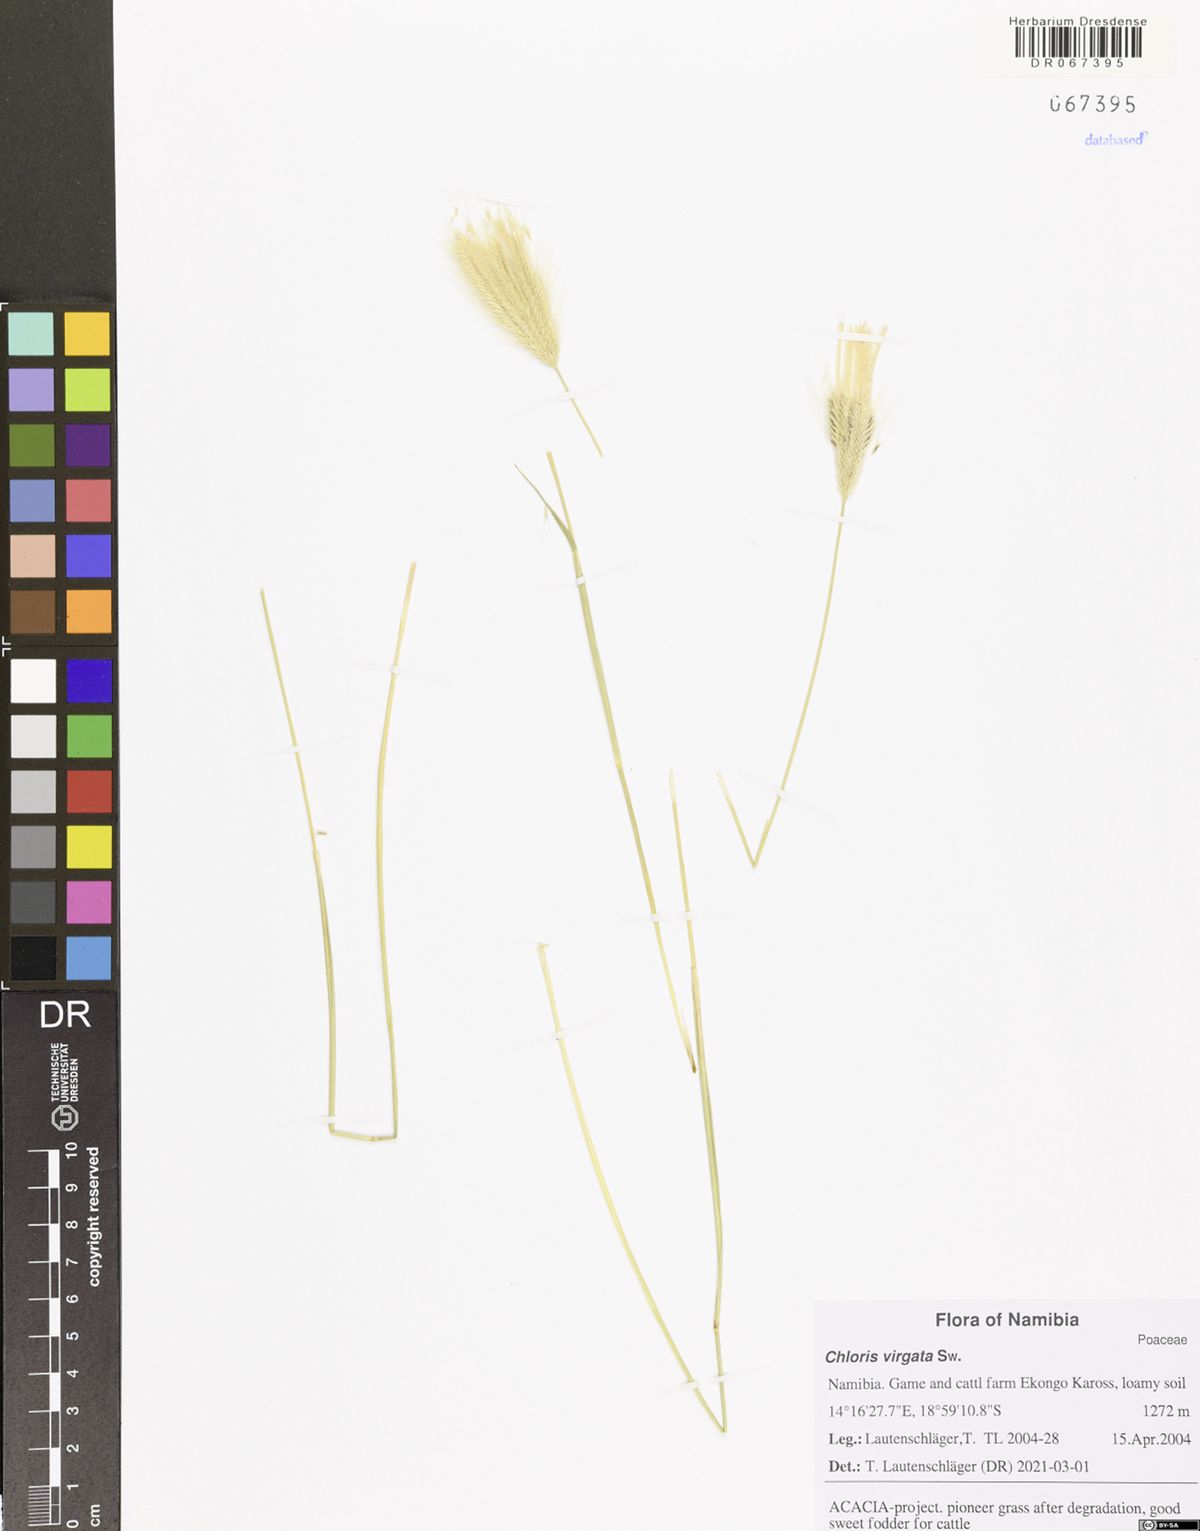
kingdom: Plantae
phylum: Tracheophyta
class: Liliopsida
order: Poales
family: Poaceae
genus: Chloris
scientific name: Chloris virgata
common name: Feathery rhodes-grass
